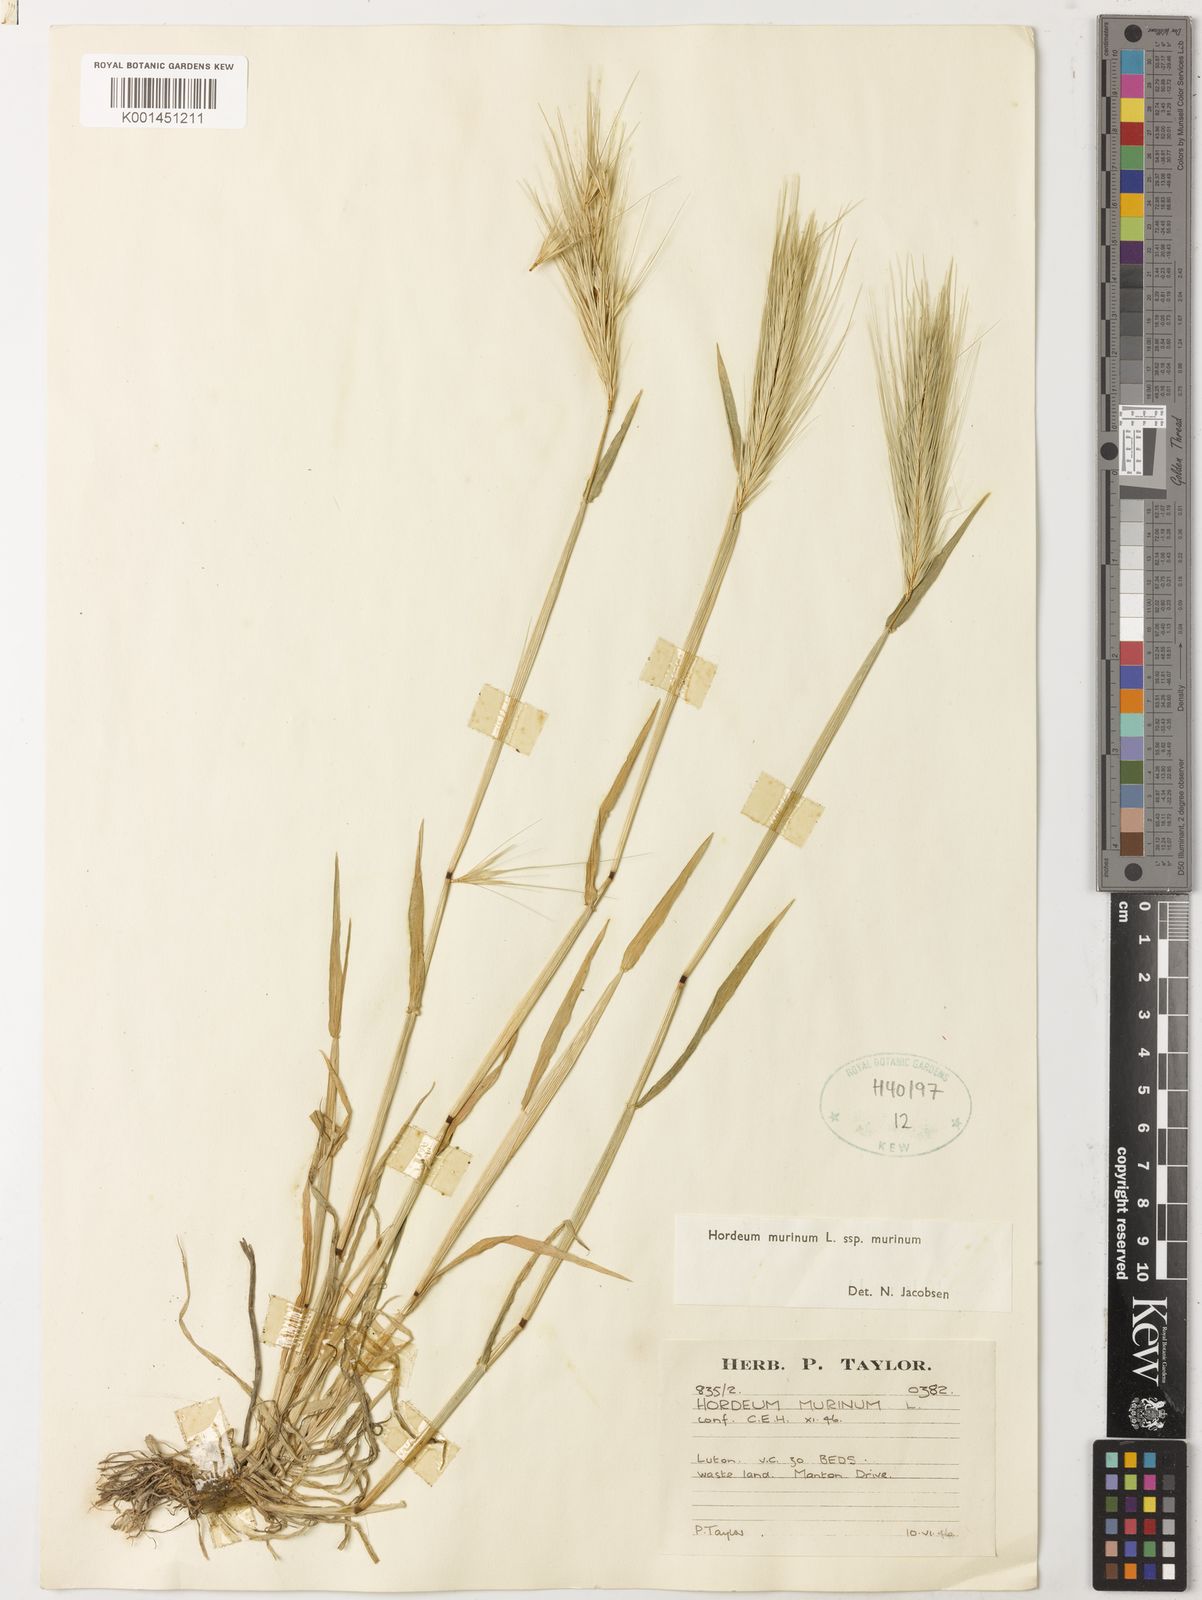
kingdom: Plantae
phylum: Tracheophyta
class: Liliopsida
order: Poales
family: Poaceae
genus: Hordeum
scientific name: Hordeum murinum
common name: Wall barley
